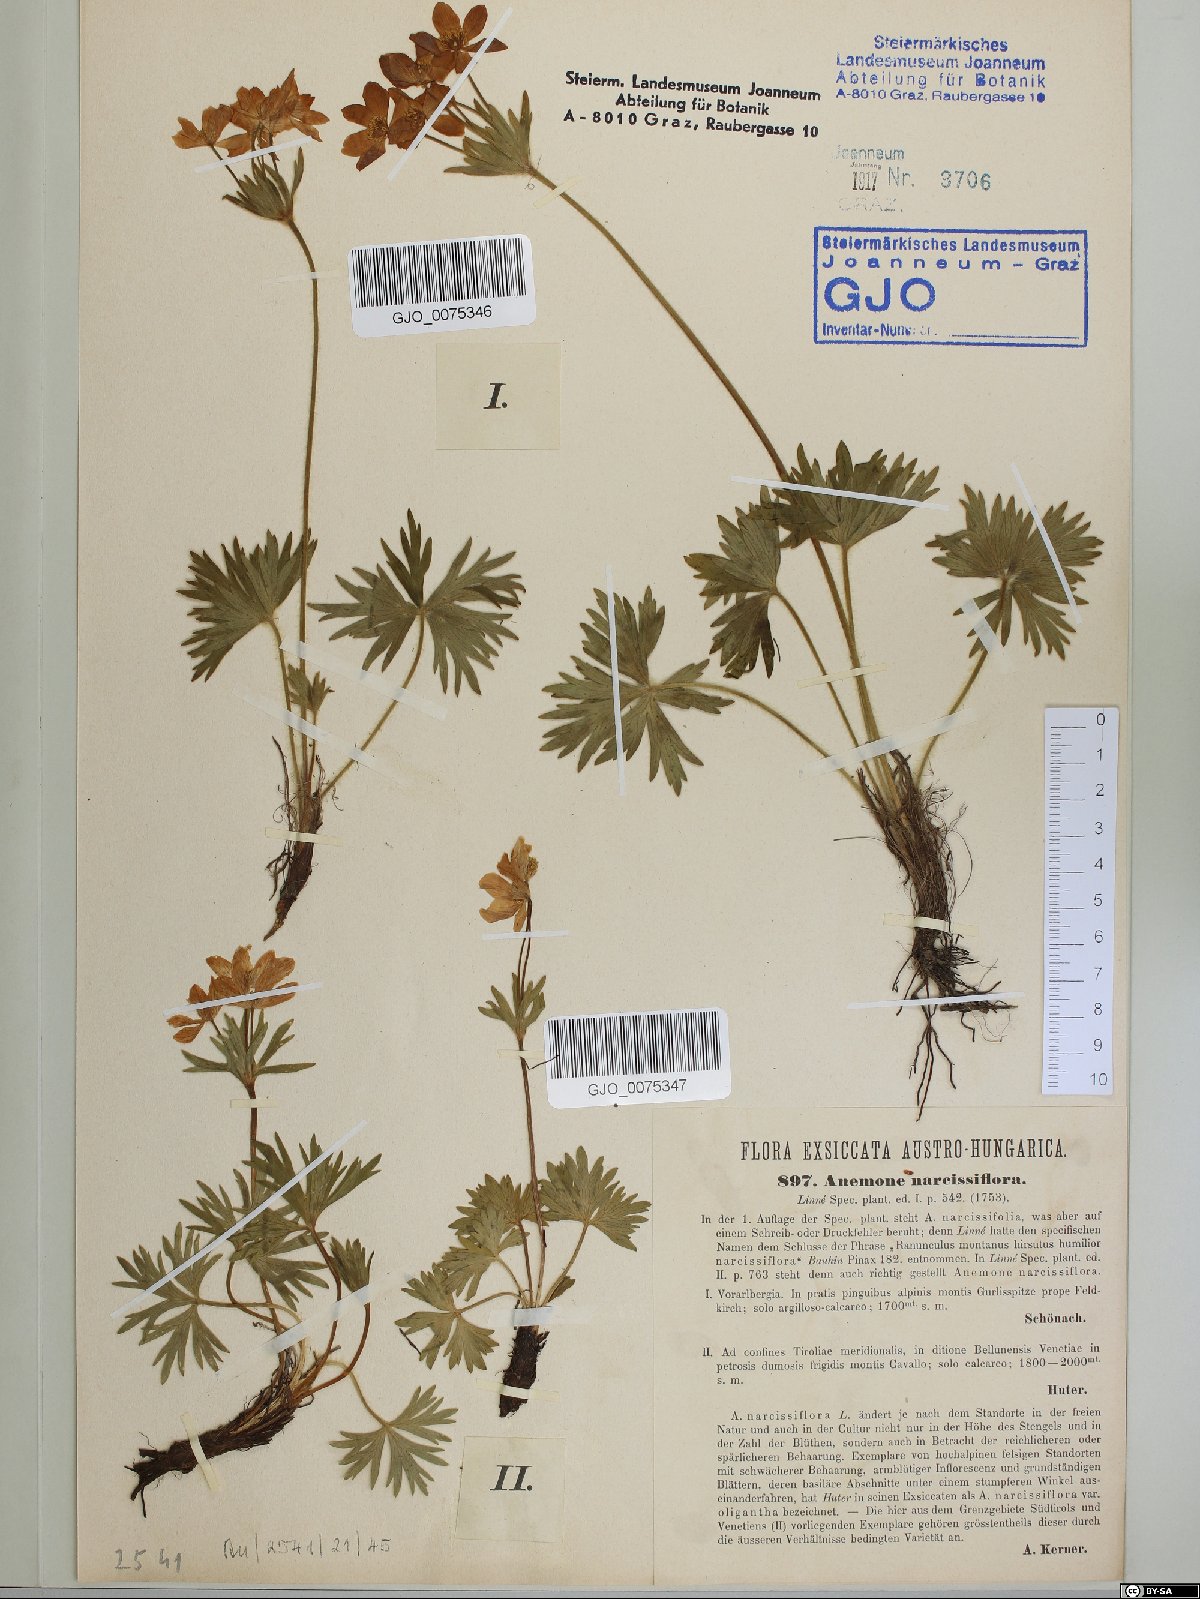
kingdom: Plantae
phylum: Tracheophyta
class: Magnoliopsida
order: Ranunculales
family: Ranunculaceae
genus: Anemonastrum
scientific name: Anemonastrum narcissiflorum
